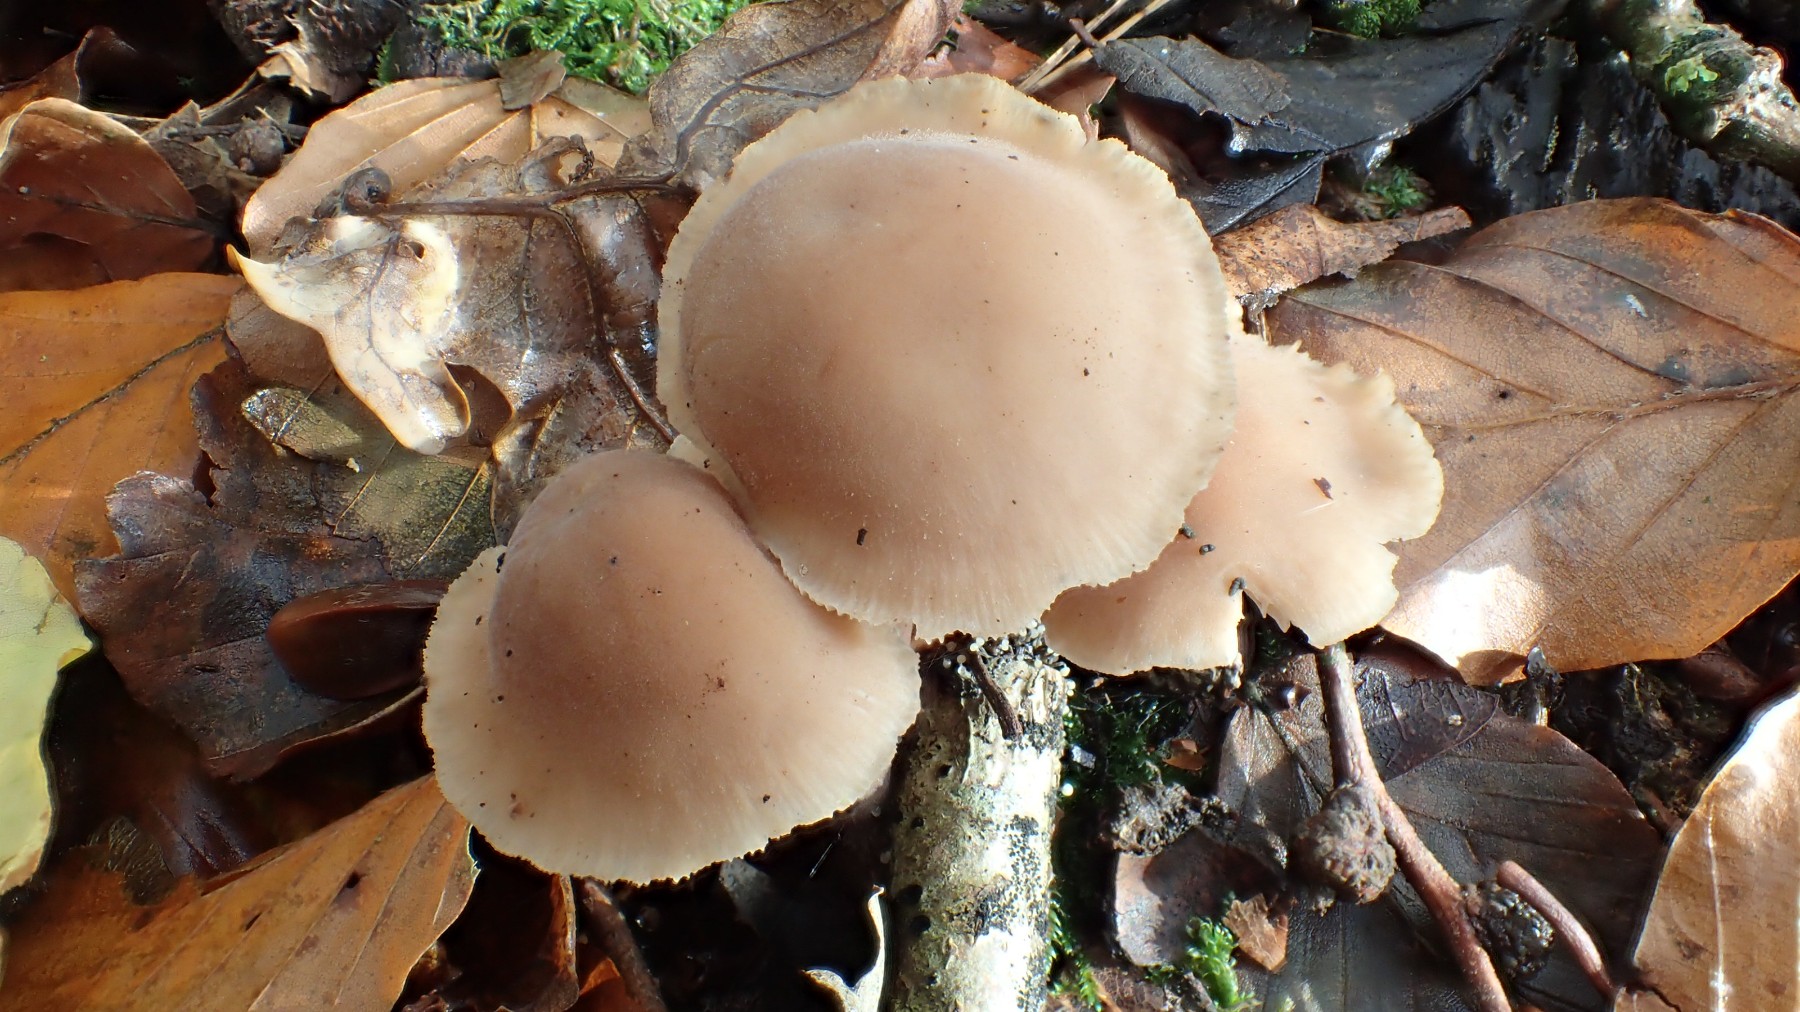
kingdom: Fungi
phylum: Basidiomycota
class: Agaricomycetes
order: Agaricales
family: Omphalotaceae
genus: Collybiopsis
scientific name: Collybiopsis confluens
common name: knippe-fladhat
